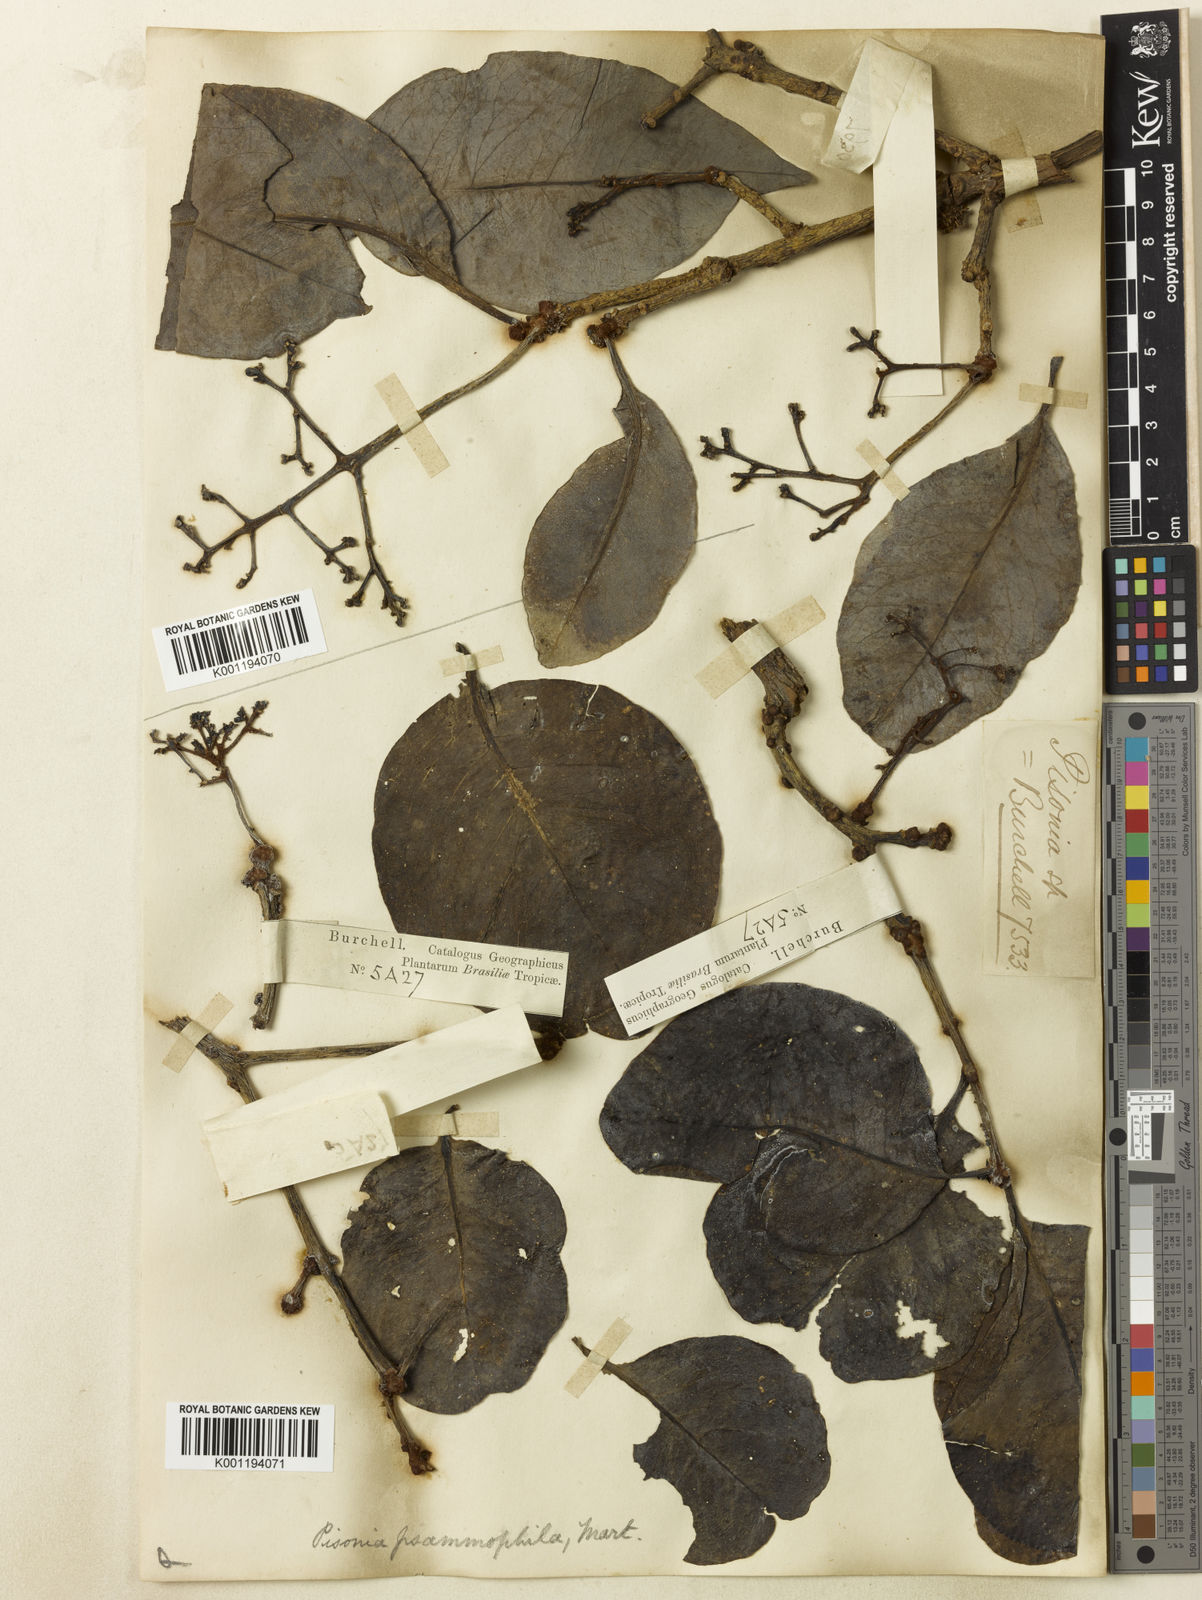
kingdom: Plantae
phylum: Tracheophyta
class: Magnoliopsida
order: Caryophyllales
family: Nyctaginaceae
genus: Guapira
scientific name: Guapira laxa
